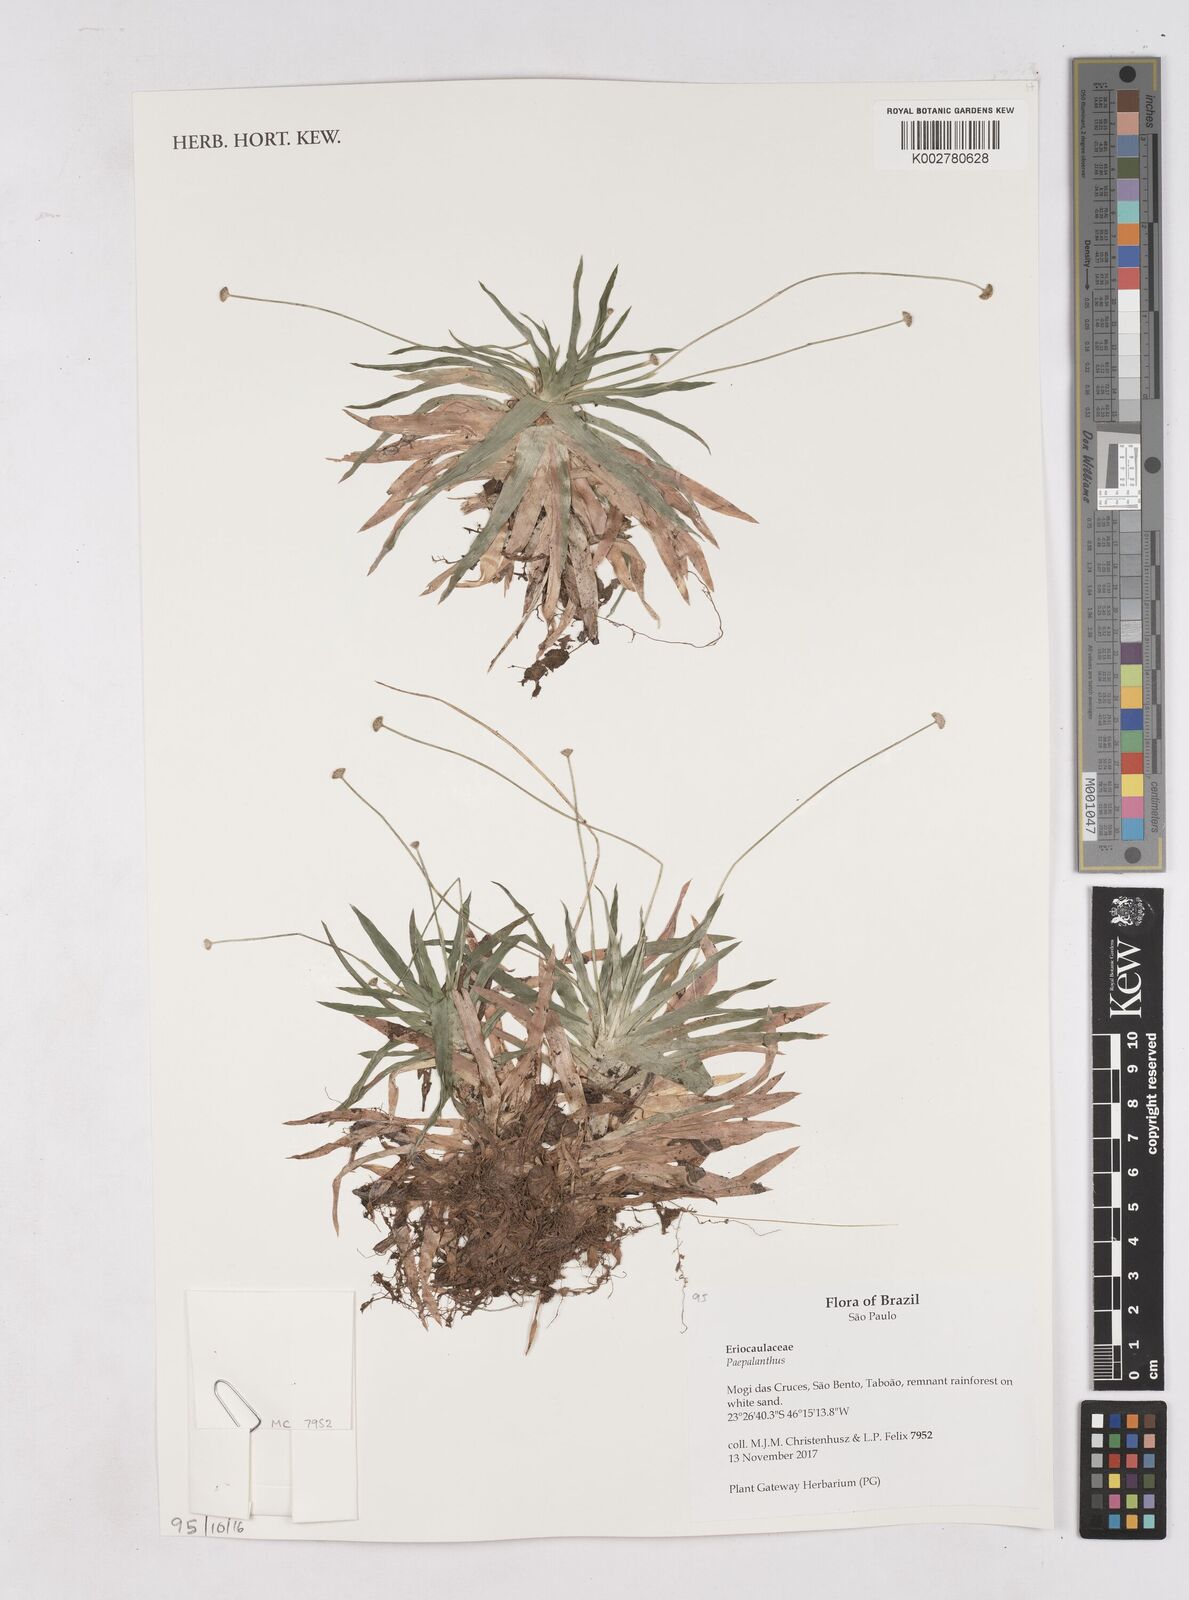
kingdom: Plantae
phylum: Tracheophyta
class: Liliopsida
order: Poales
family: Eriocaulaceae
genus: Paepalanthus
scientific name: Paepalanthus
